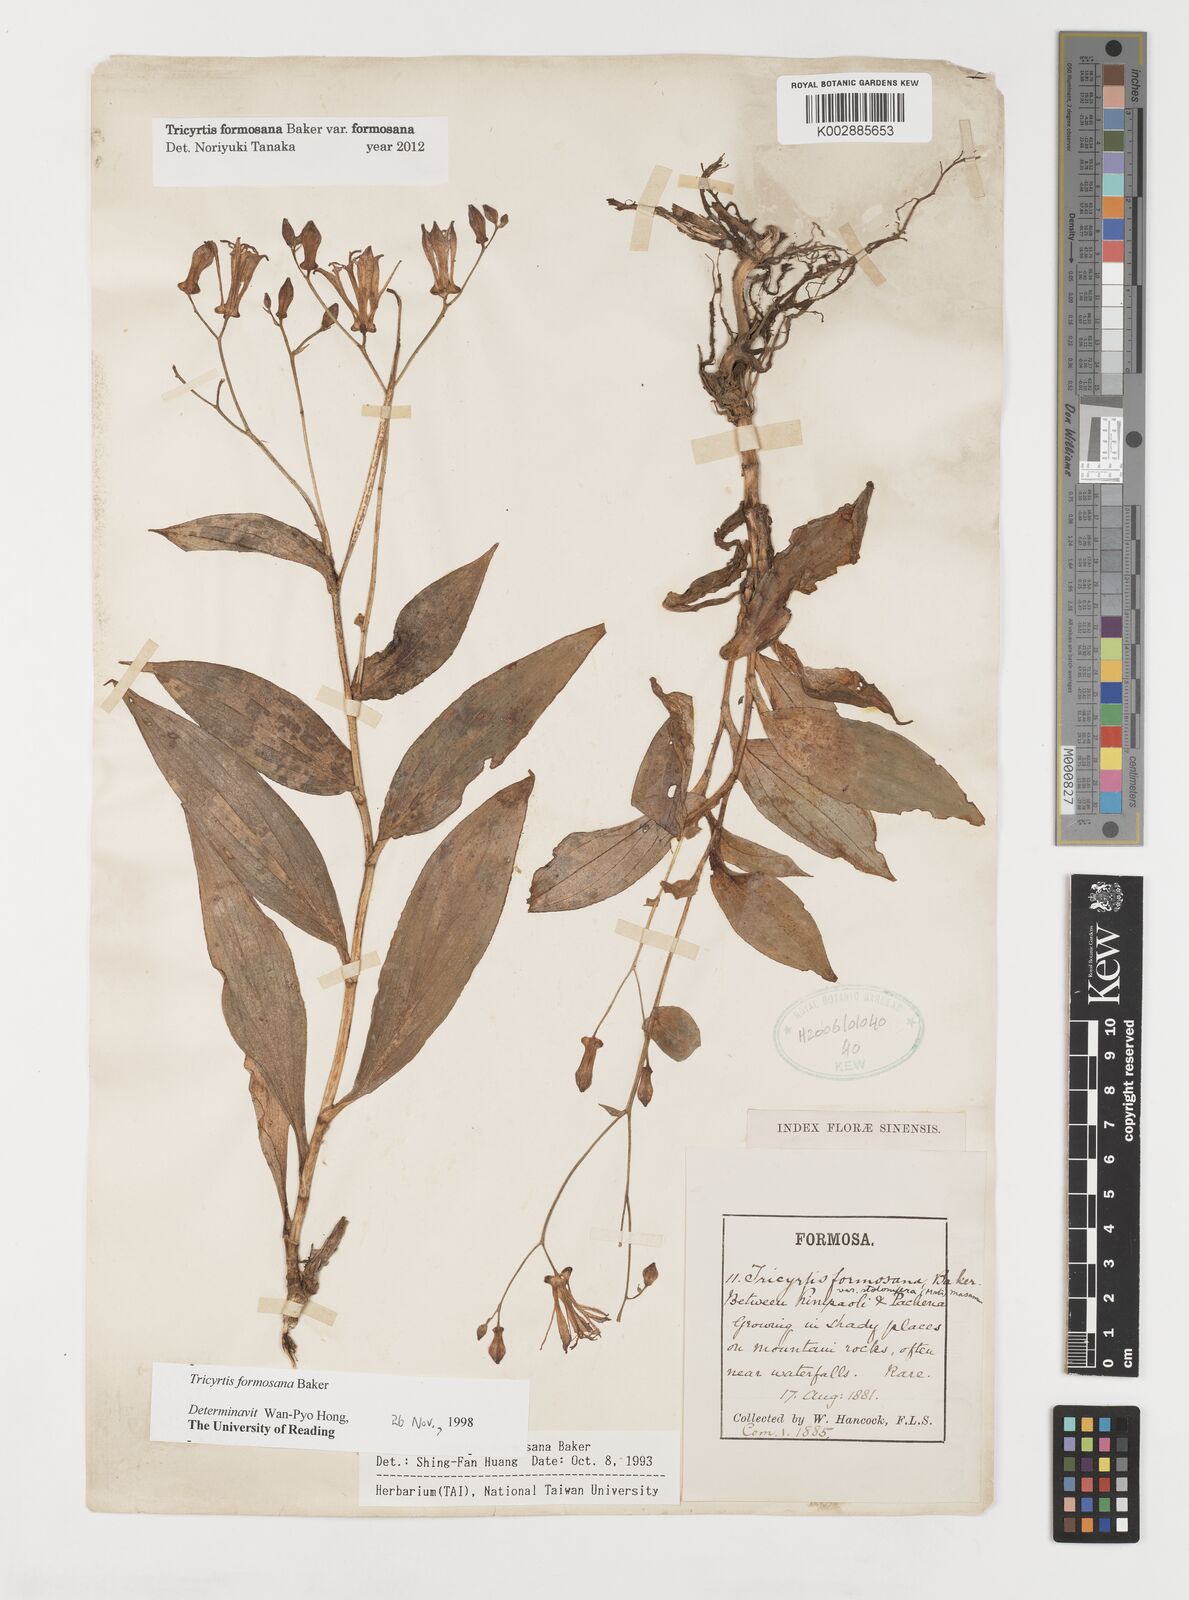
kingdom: Plantae
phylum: Tracheophyta
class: Liliopsida
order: Liliales
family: Liliaceae
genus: Tricyrtis
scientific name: Tricyrtis formosana
